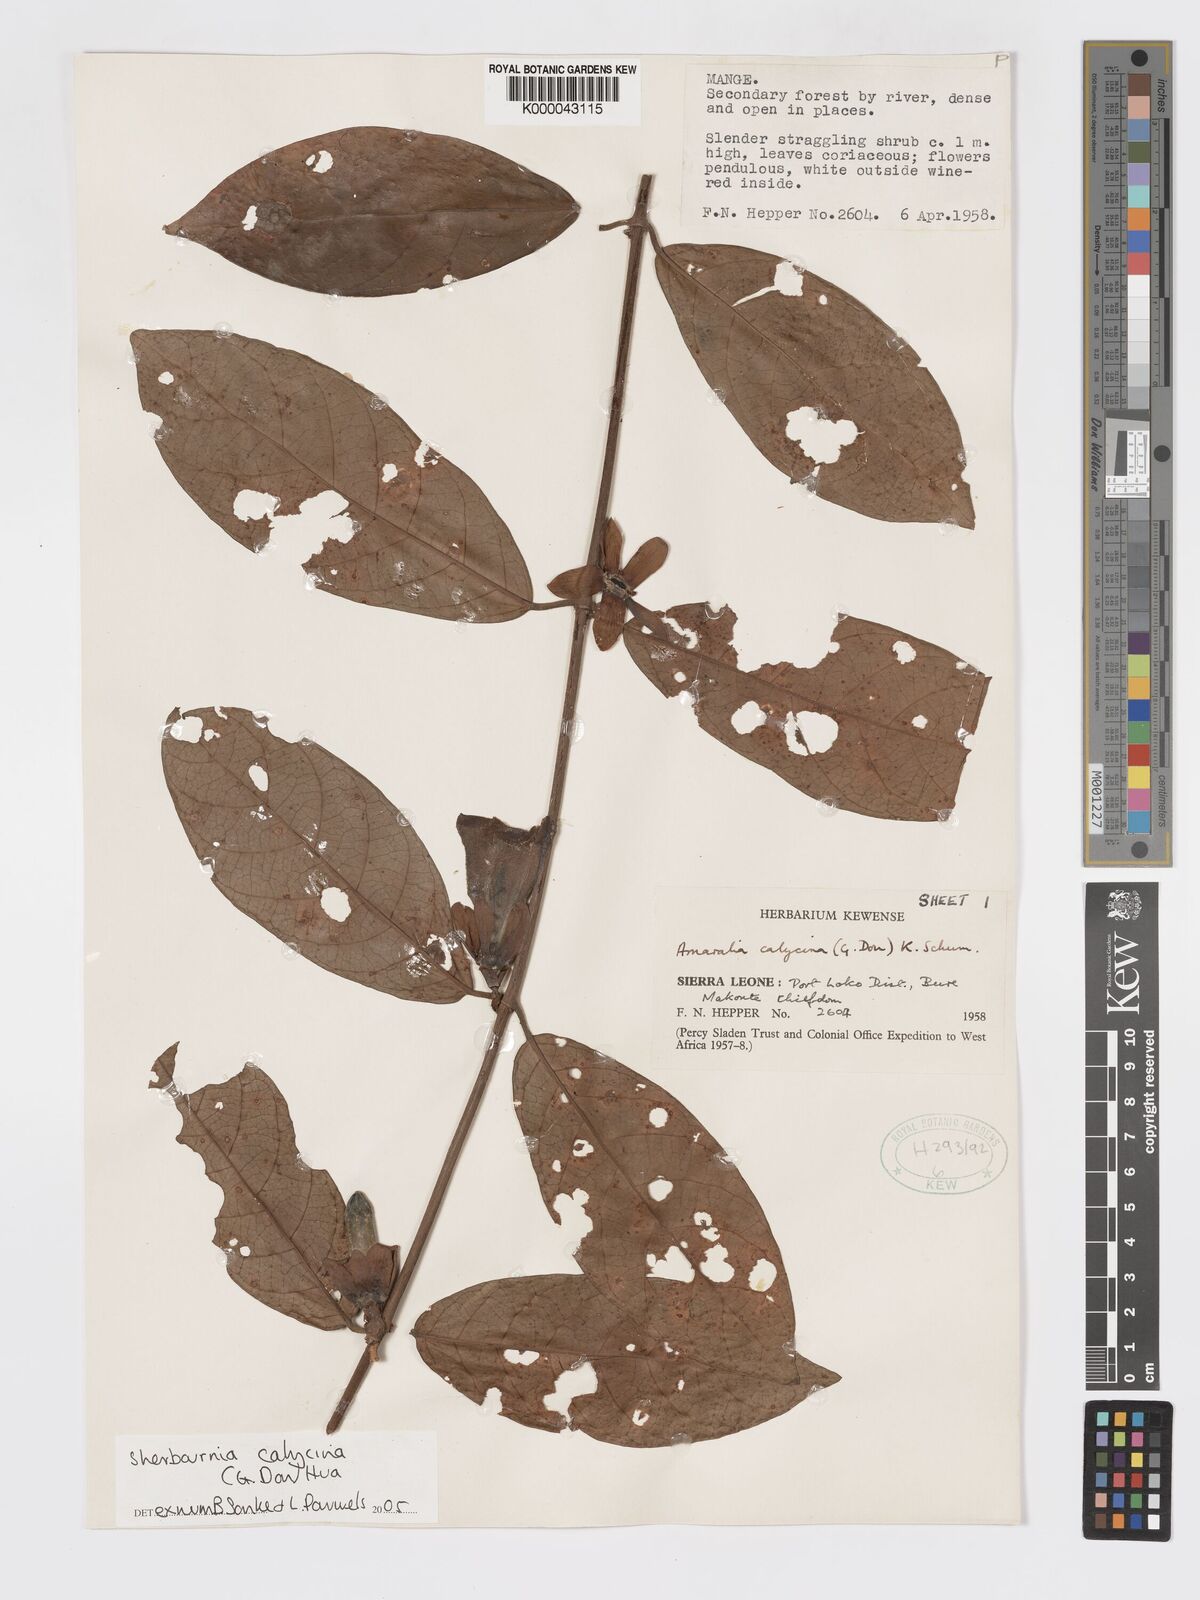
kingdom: Plantae
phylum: Tracheophyta
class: Magnoliopsida
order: Gentianales
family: Rubiaceae
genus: Sherbournia
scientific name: Sherbournia calycina
